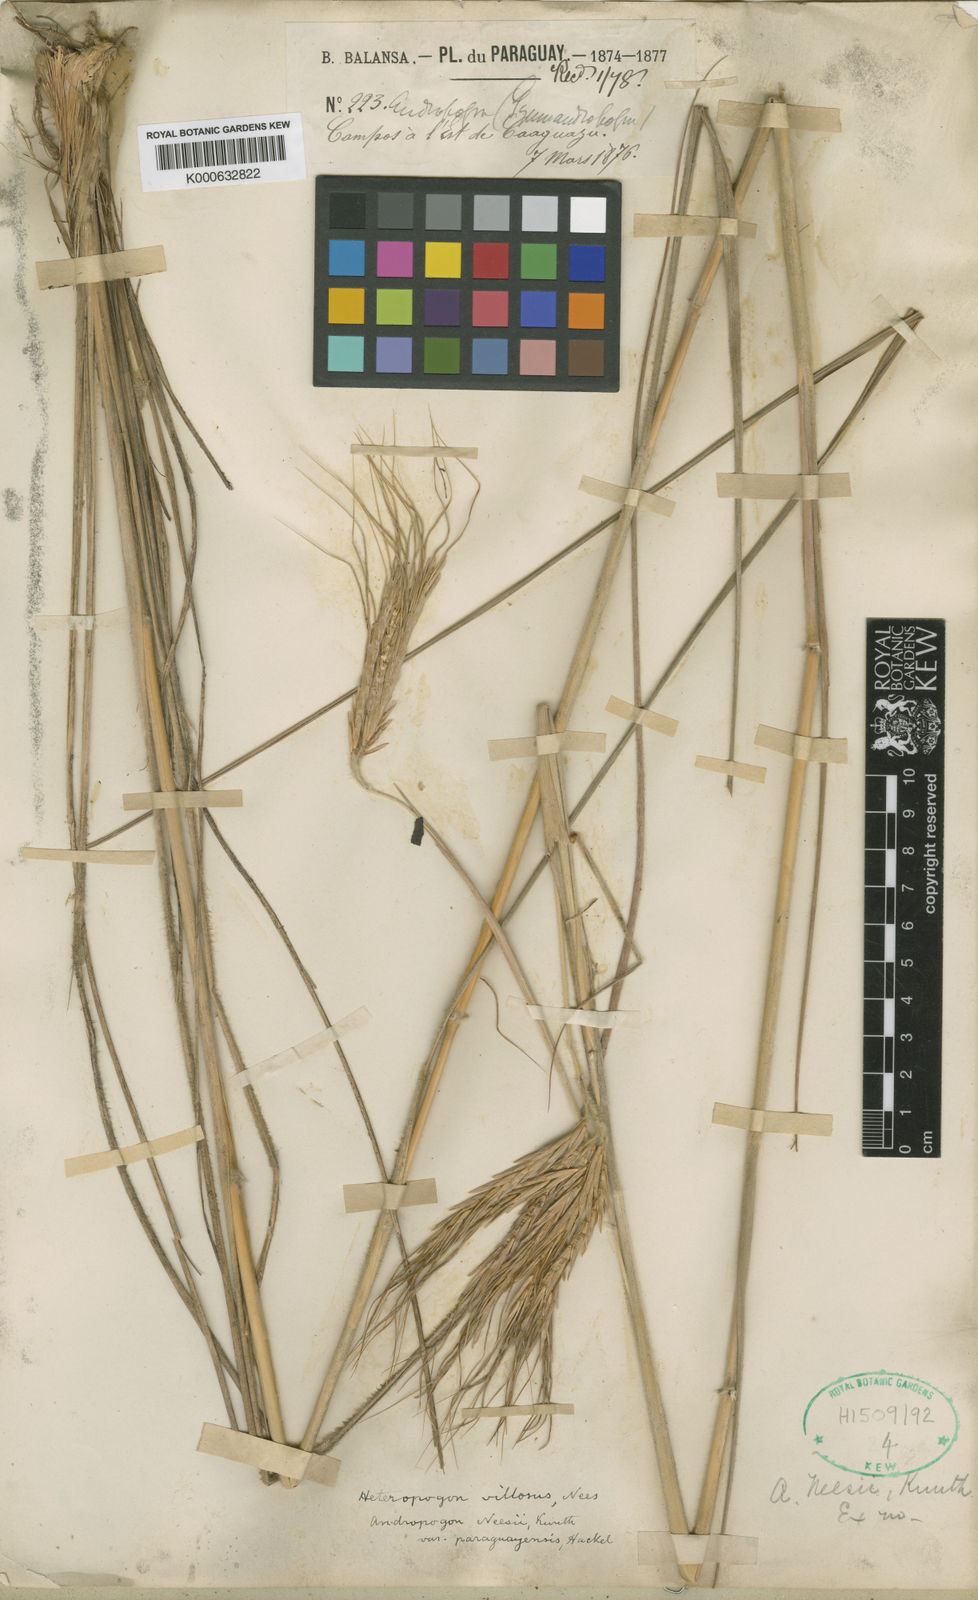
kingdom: Plantae
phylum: Tracheophyta
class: Liliopsida
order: Poales
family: Poaceae
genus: Agenium
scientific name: Agenium majus
